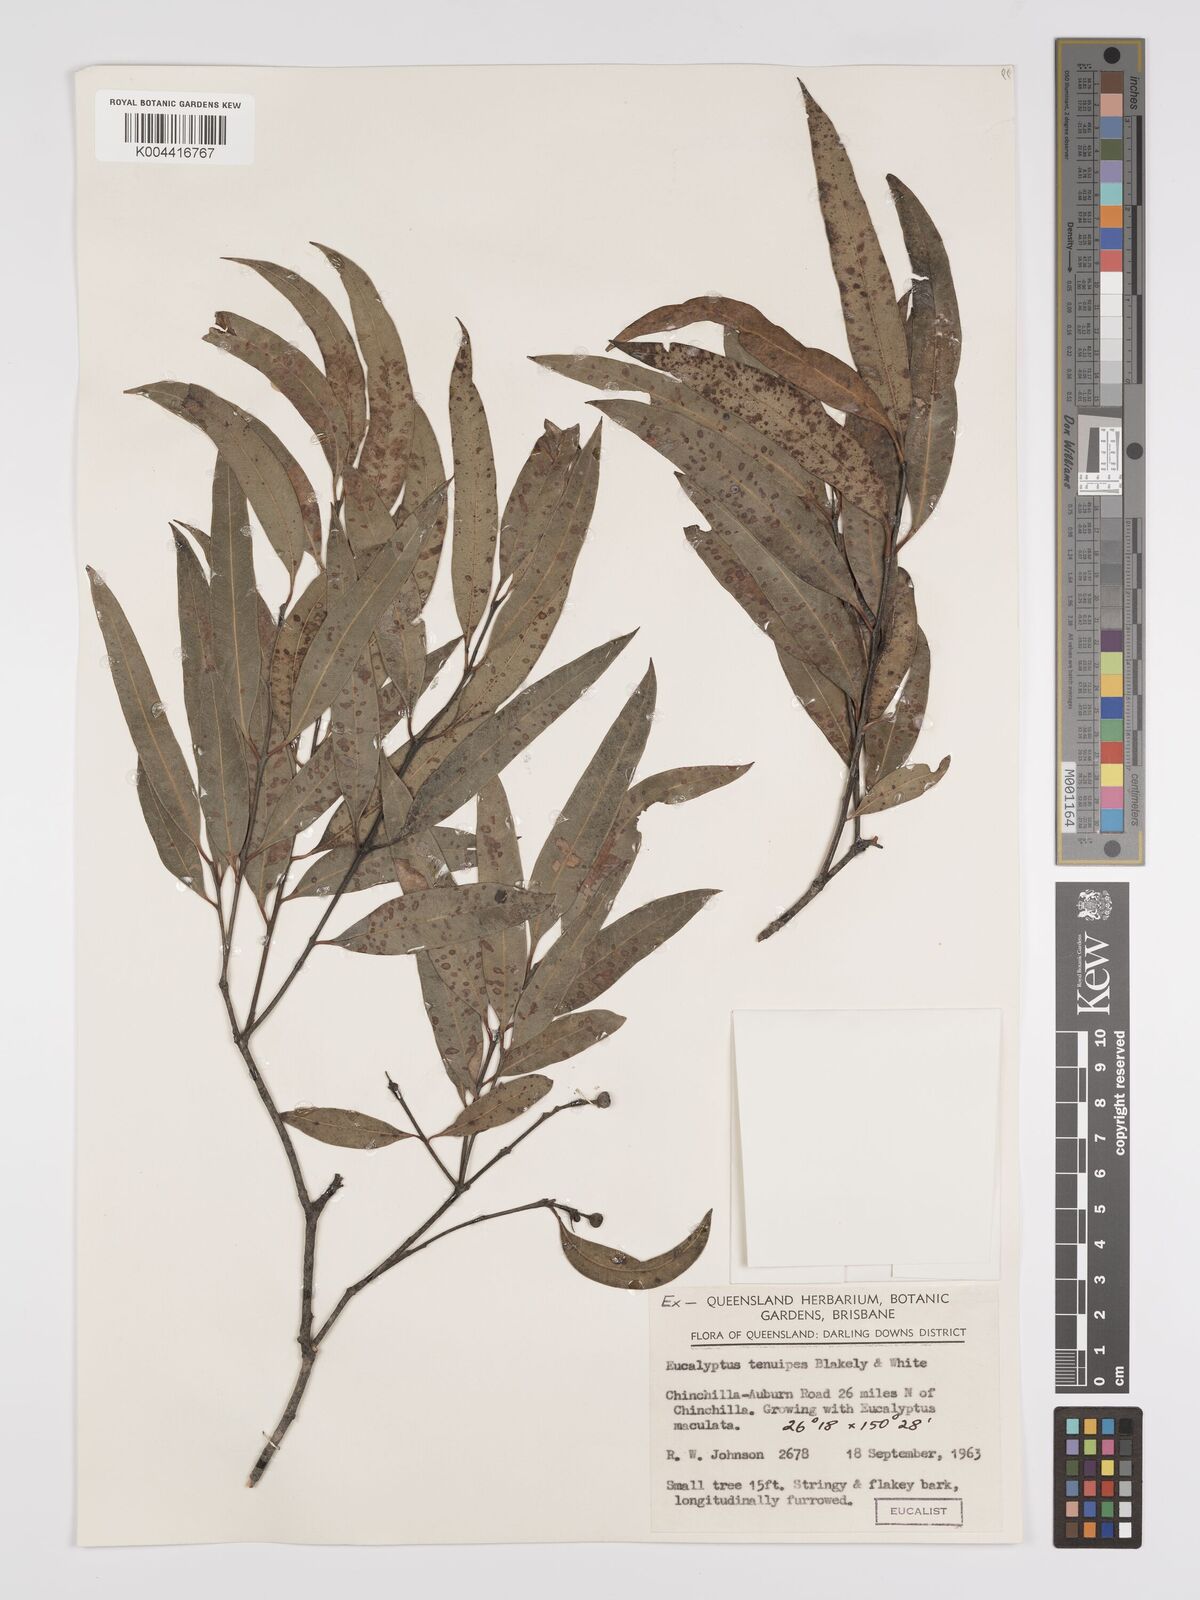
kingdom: Plantae
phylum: Tracheophyta
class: Magnoliopsida
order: Myrtales
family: Myrtaceae
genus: Eucalyptus
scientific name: Eucalyptus tenuipes
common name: Narrow-leaved white mahogany
